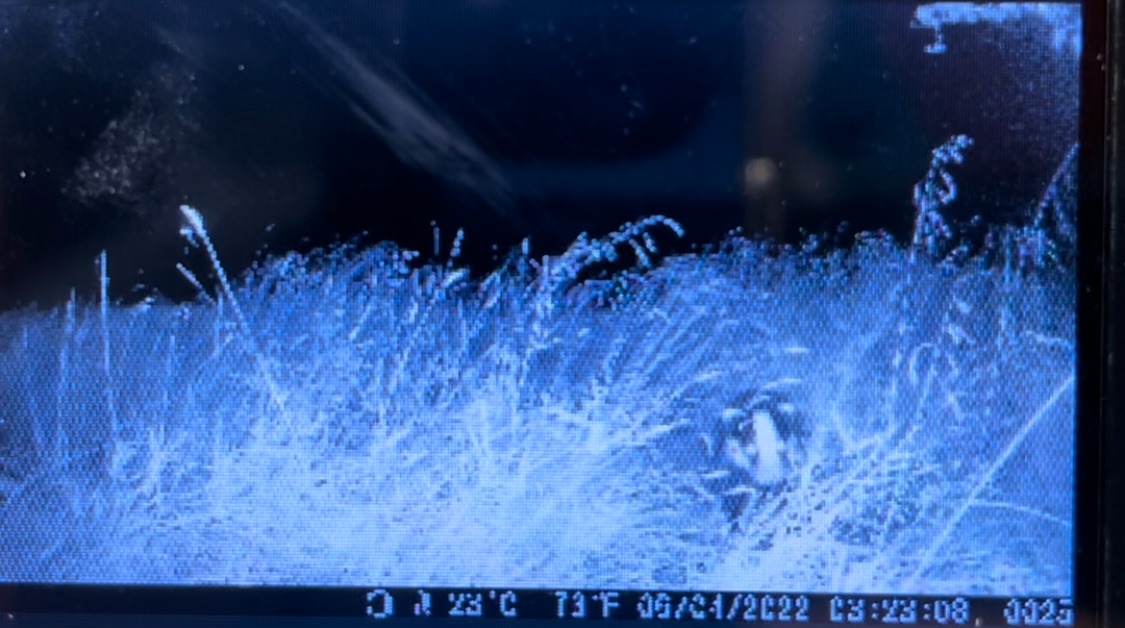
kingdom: Animalia
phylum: Chordata
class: Mammalia
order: Carnivora
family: Mustelidae
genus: Meles
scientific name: Meles meles
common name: Grævling
